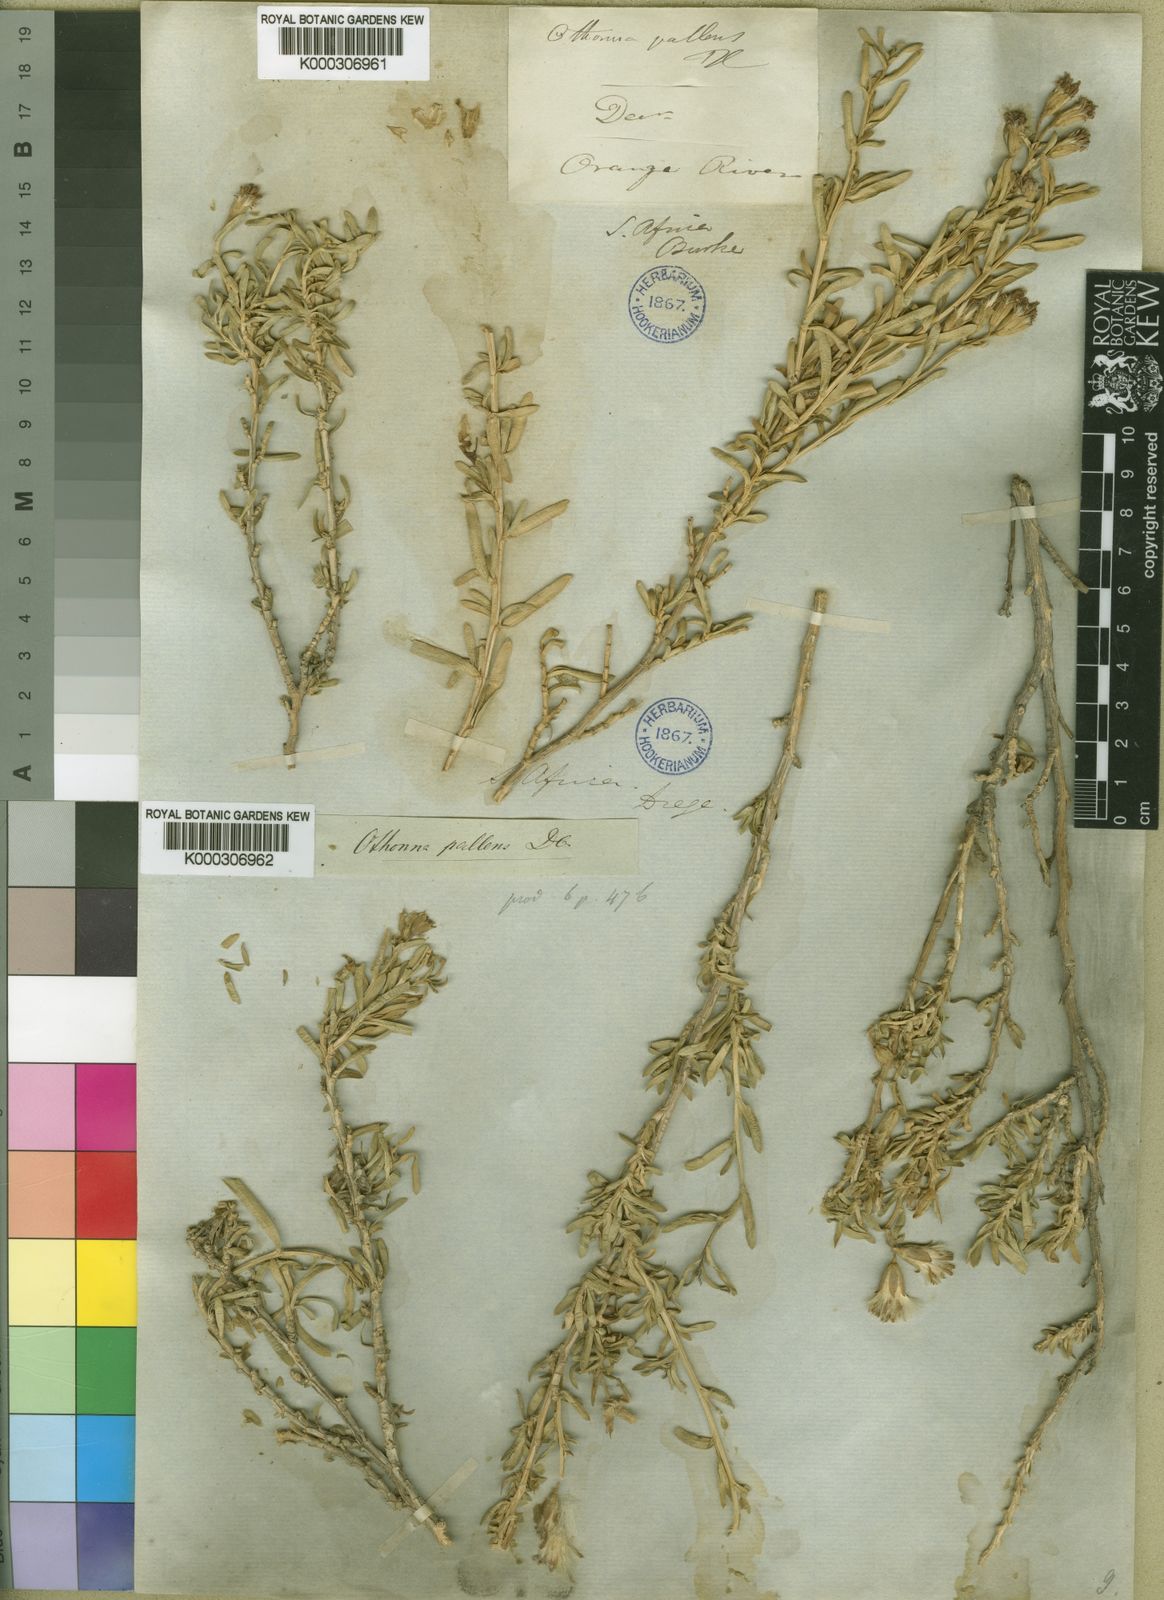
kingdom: Plantae
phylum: Tracheophyta
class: Magnoliopsida
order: Asterales
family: Asteraceae
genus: Hertia
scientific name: Hertia pallens
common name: Springbokbush
